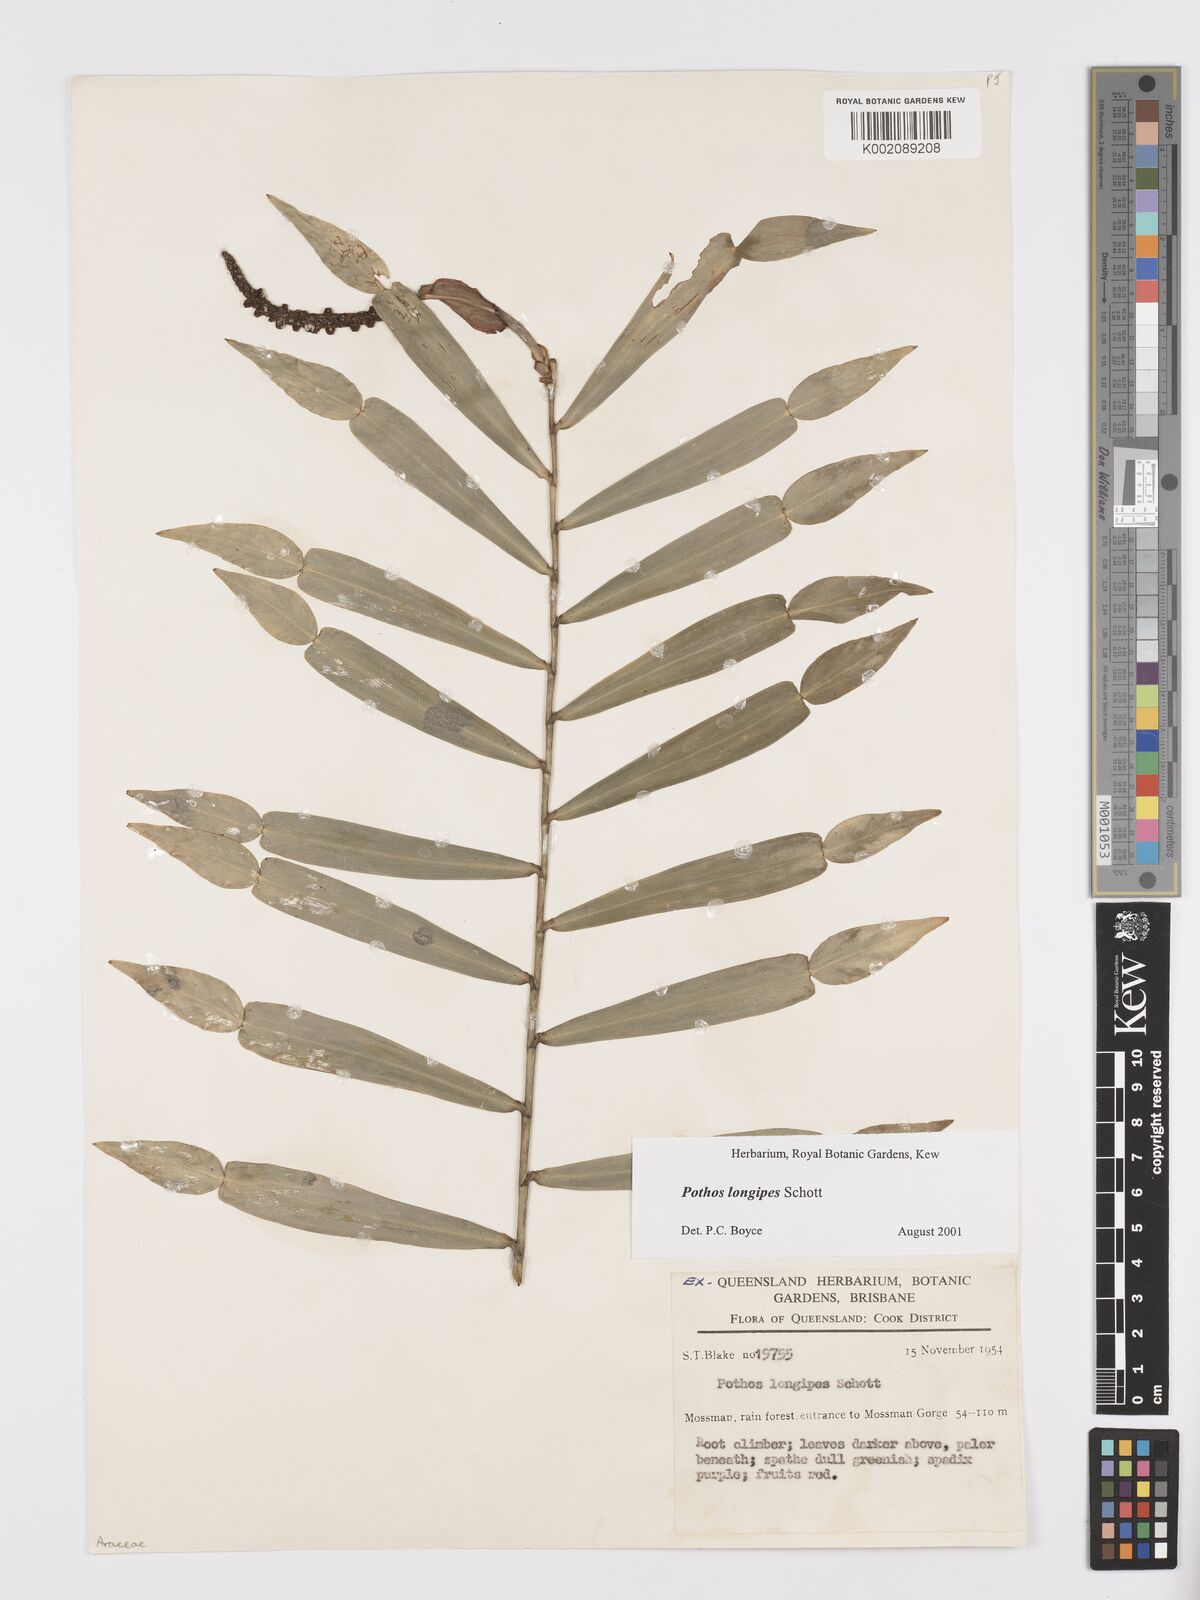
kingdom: Plantae
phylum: Tracheophyta
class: Liliopsida
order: Alismatales
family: Araceae
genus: Pothos
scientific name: Pothos longipes
